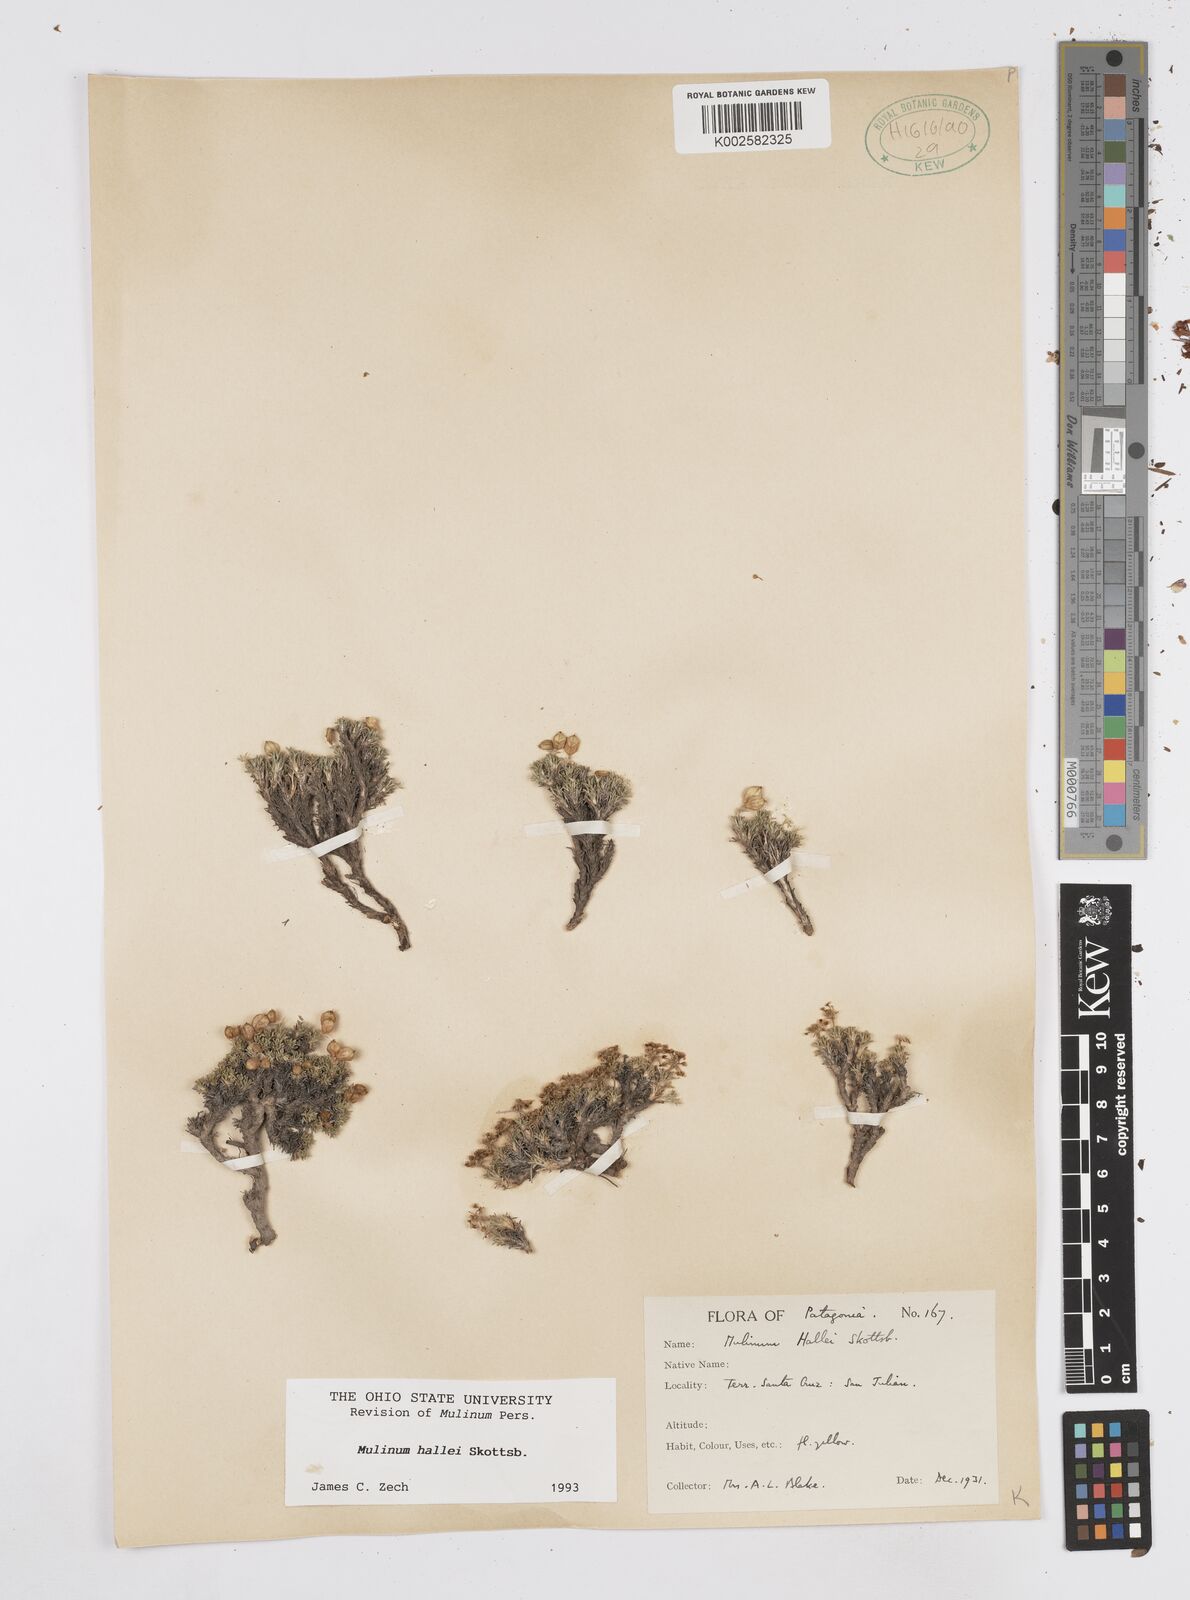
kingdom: Plantae
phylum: Tracheophyta
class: Magnoliopsida
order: Apiales
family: Apiaceae
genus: Azorella
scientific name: Azorella hallei
